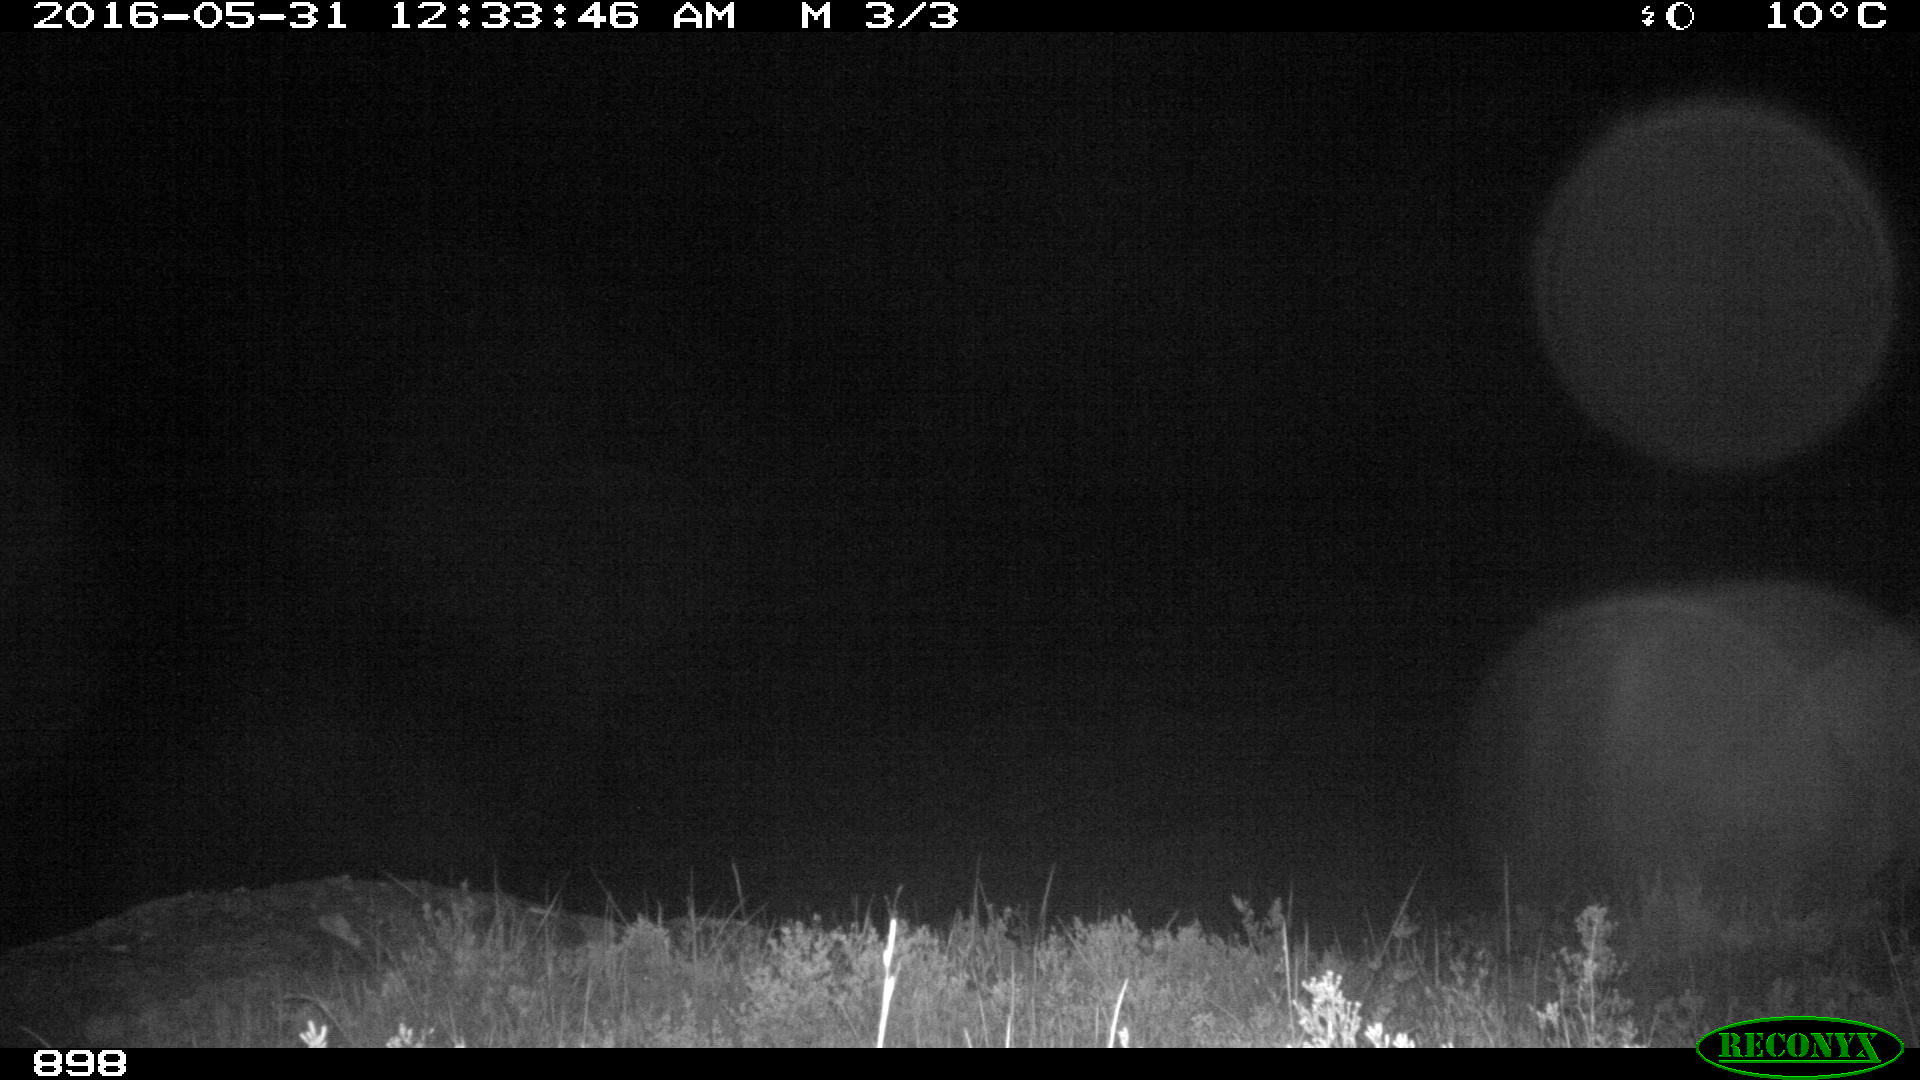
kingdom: Animalia
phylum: Chordata
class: Mammalia
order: Perissodactyla
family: Equidae
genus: Equus
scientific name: Equus caballus
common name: Horse
